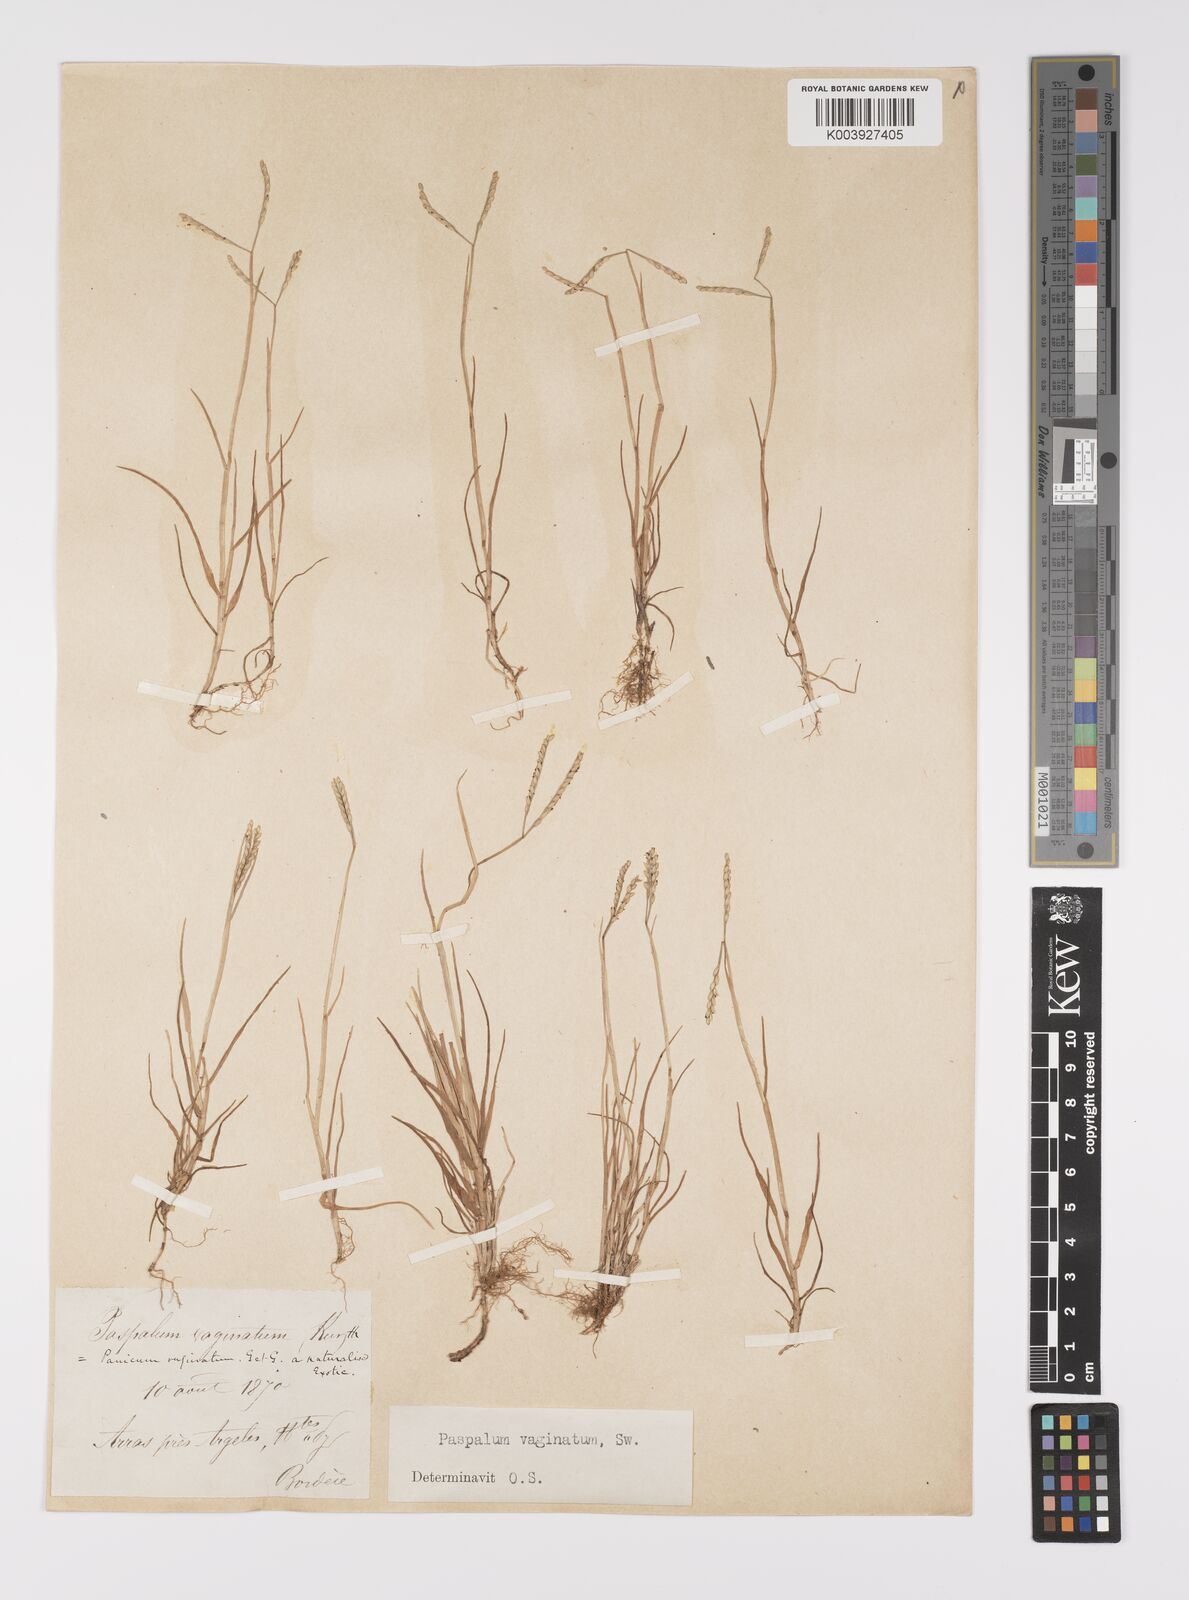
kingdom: Plantae
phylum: Tracheophyta
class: Liliopsida
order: Poales
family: Poaceae
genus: Paspalum
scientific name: Paspalum vaginatum
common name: Seashore paspalum
